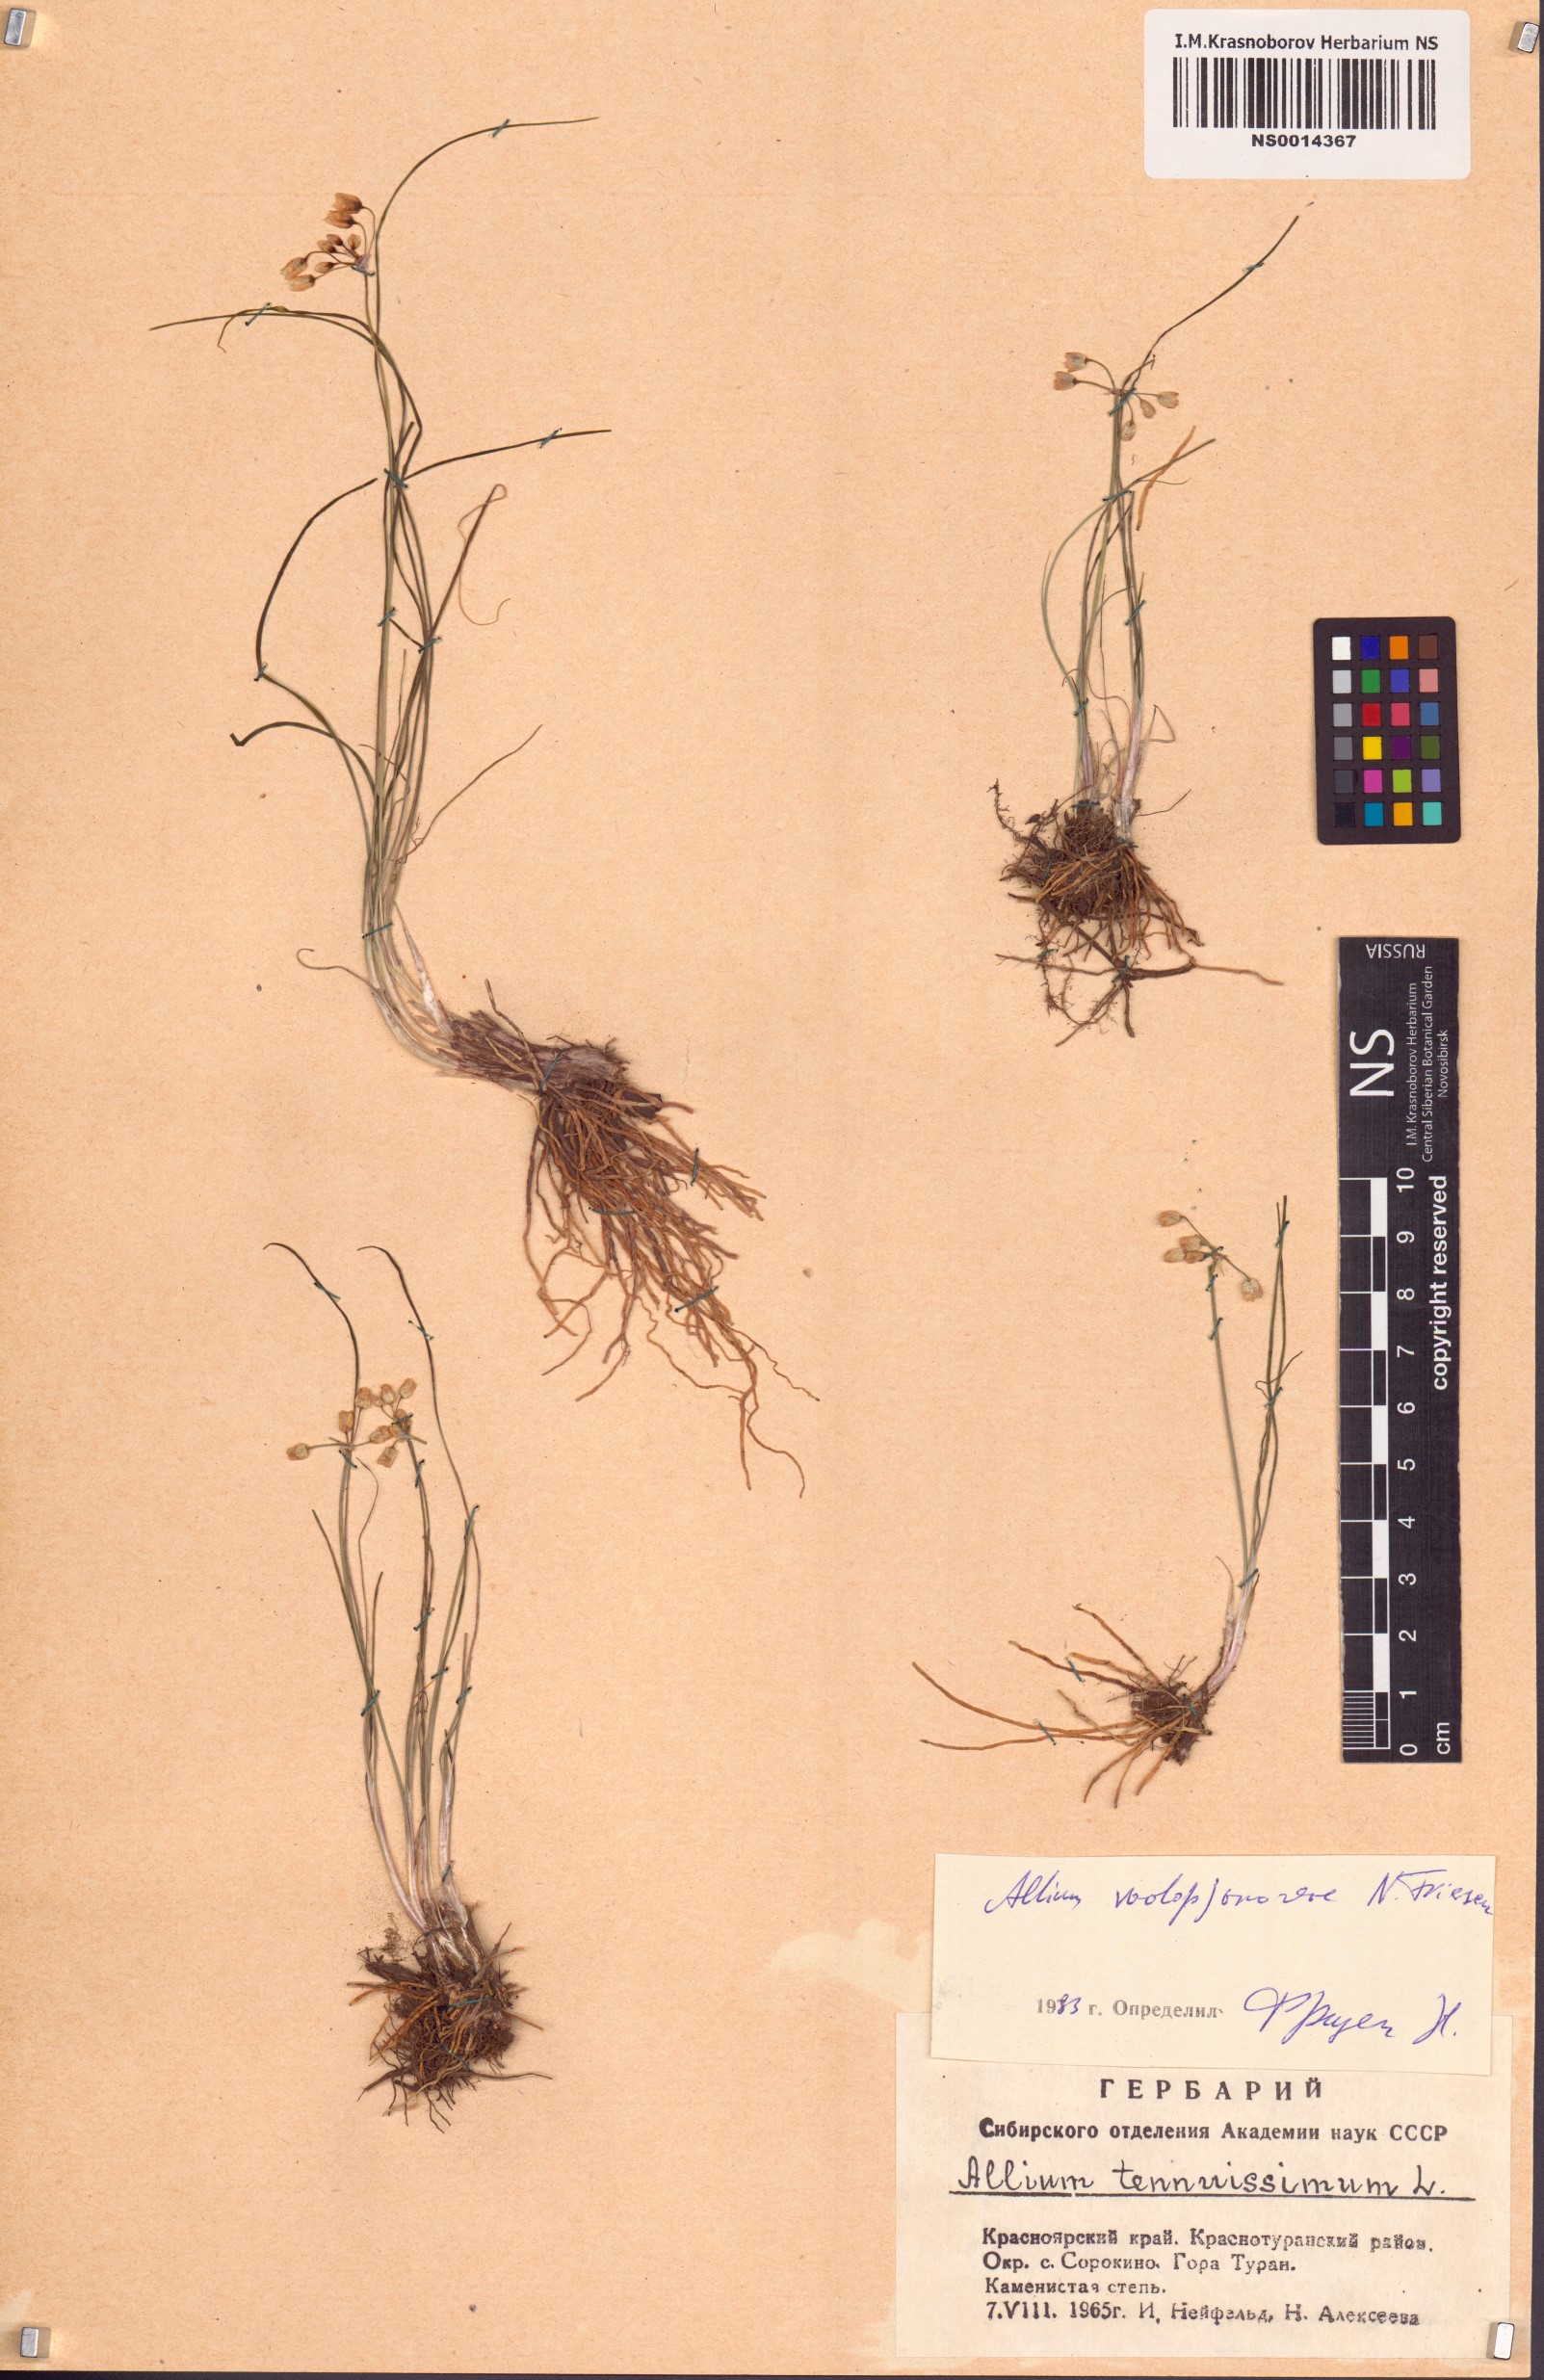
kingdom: Plantae
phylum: Tracheophyta
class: Liliopsida
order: Asparagales
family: Amaryllidaceae
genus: Allium
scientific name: Allium vodopjanovae
